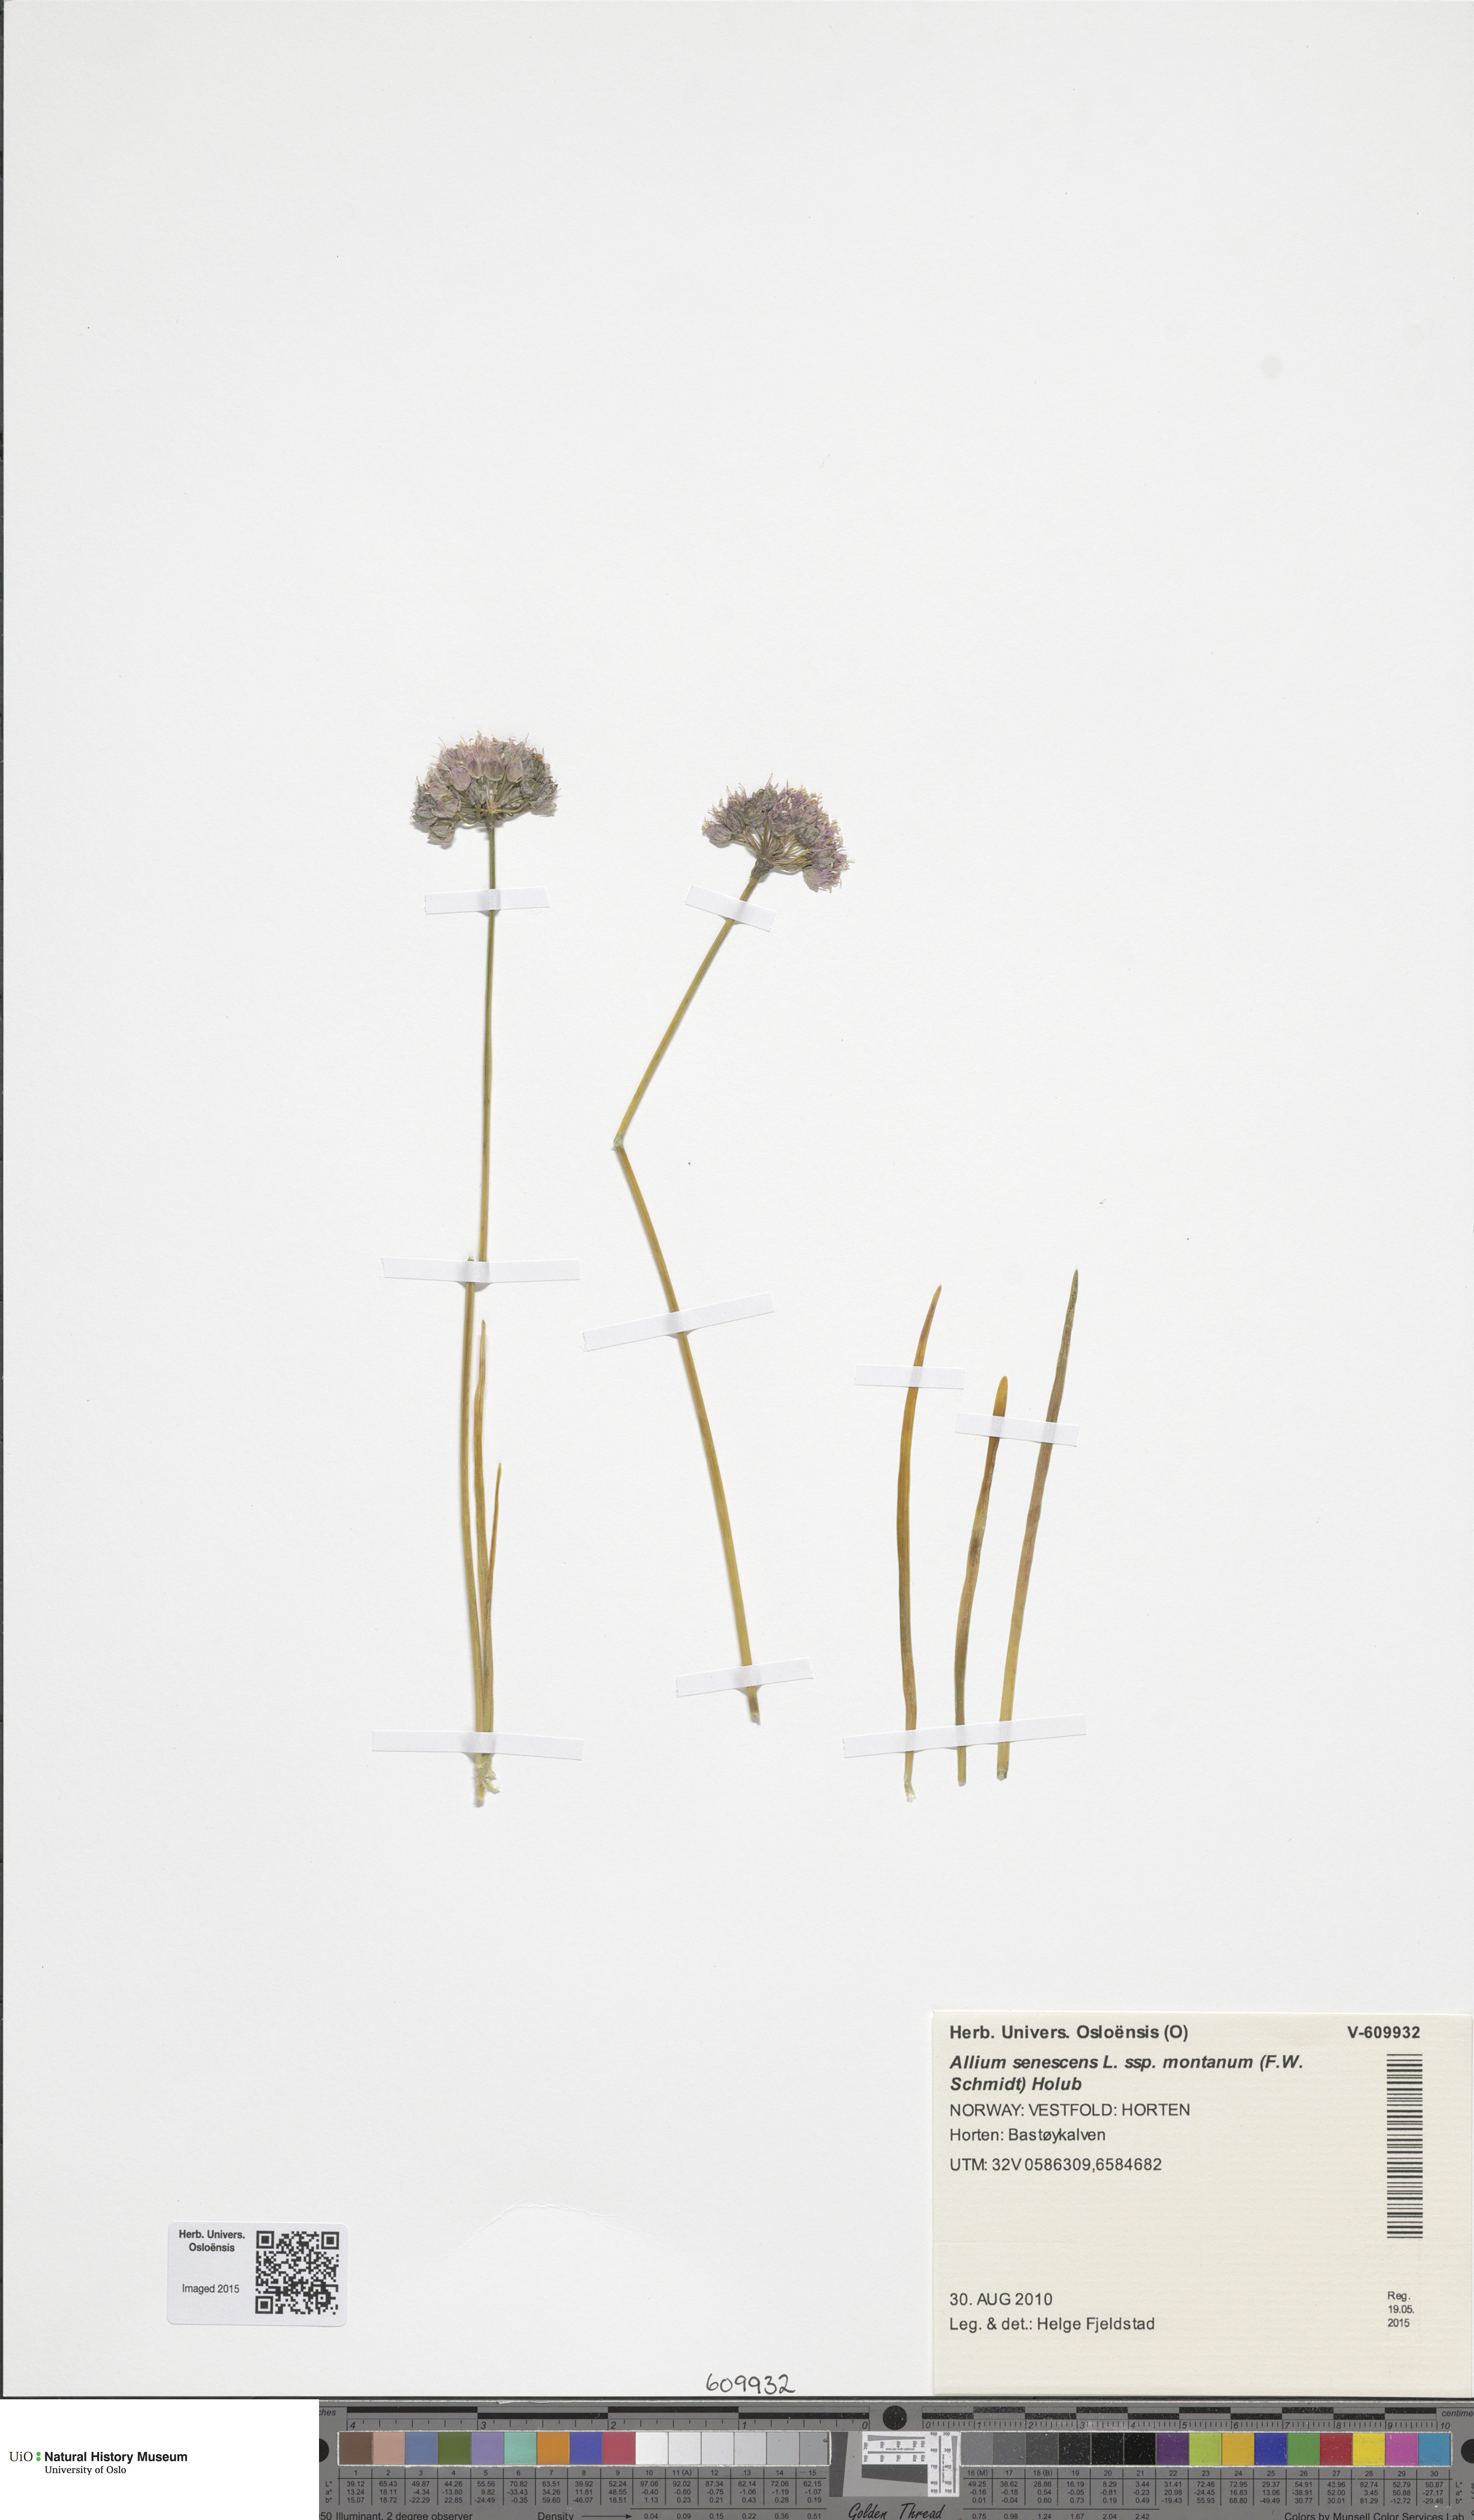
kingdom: Plantae
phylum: Tracheophyta
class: Liliopsida
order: Asparagales
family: Amaryllidaceae
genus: Allium
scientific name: Allium lusitanicum
